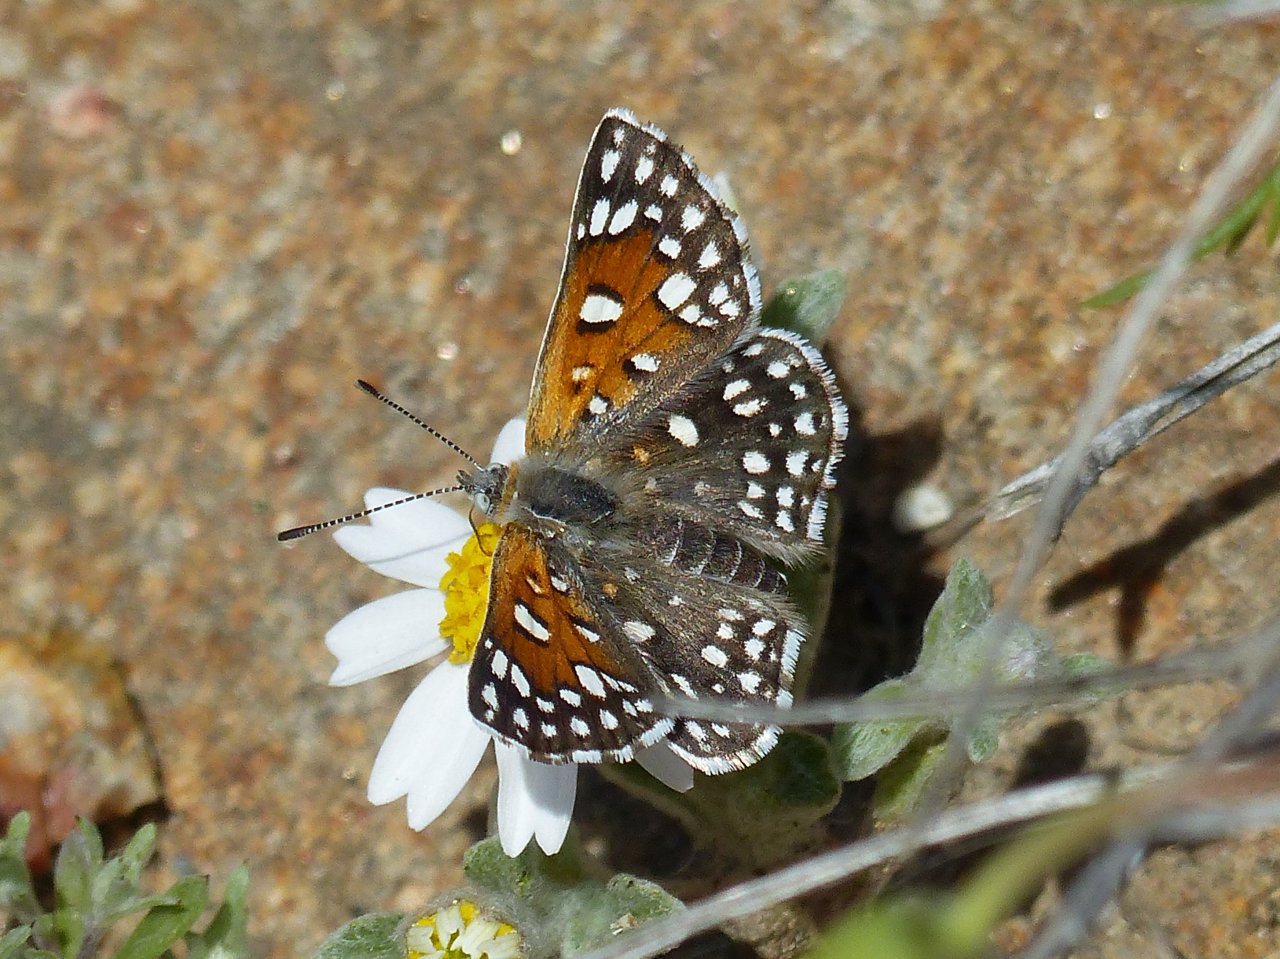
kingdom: Animalia
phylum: Arthropoda
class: Insecta
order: Lepidoptera
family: Riodinidae
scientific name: Riodinidae
